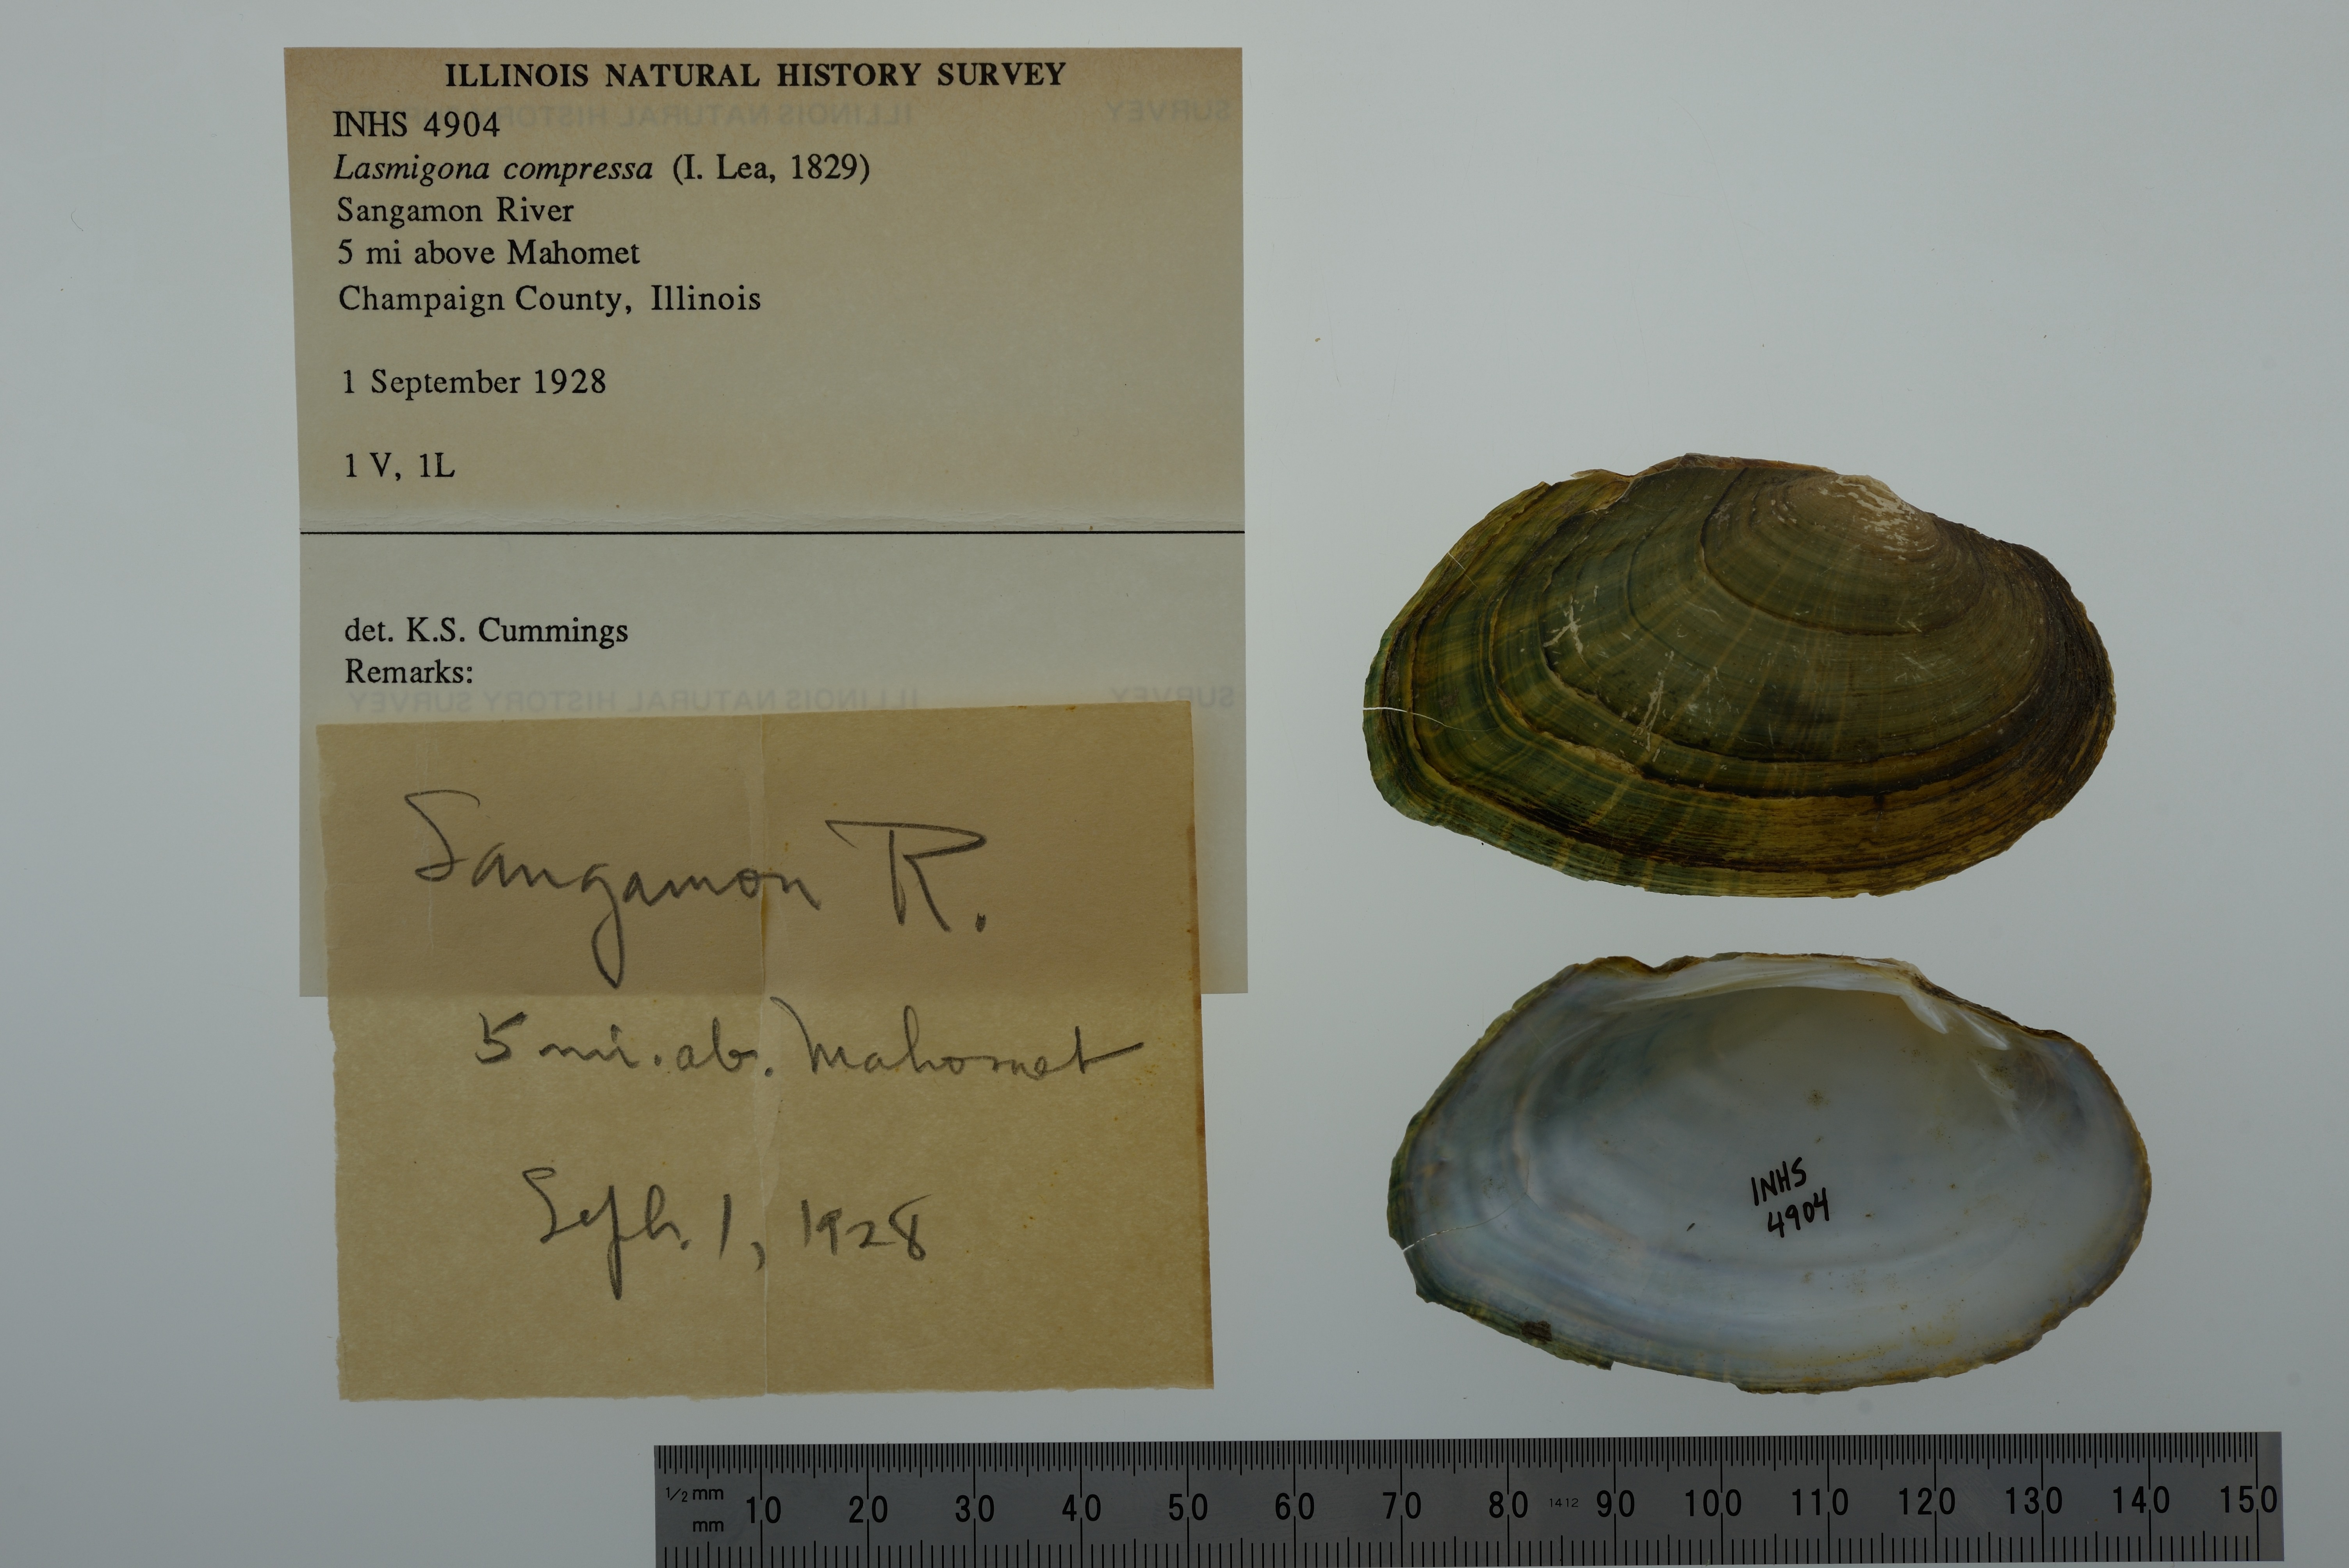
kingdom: Animalia
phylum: Mollusca
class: Bivalvia
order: Unionida
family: Unionidae
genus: Lasmigona
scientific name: Lasmigona compressa
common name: Creek heelsplitter
